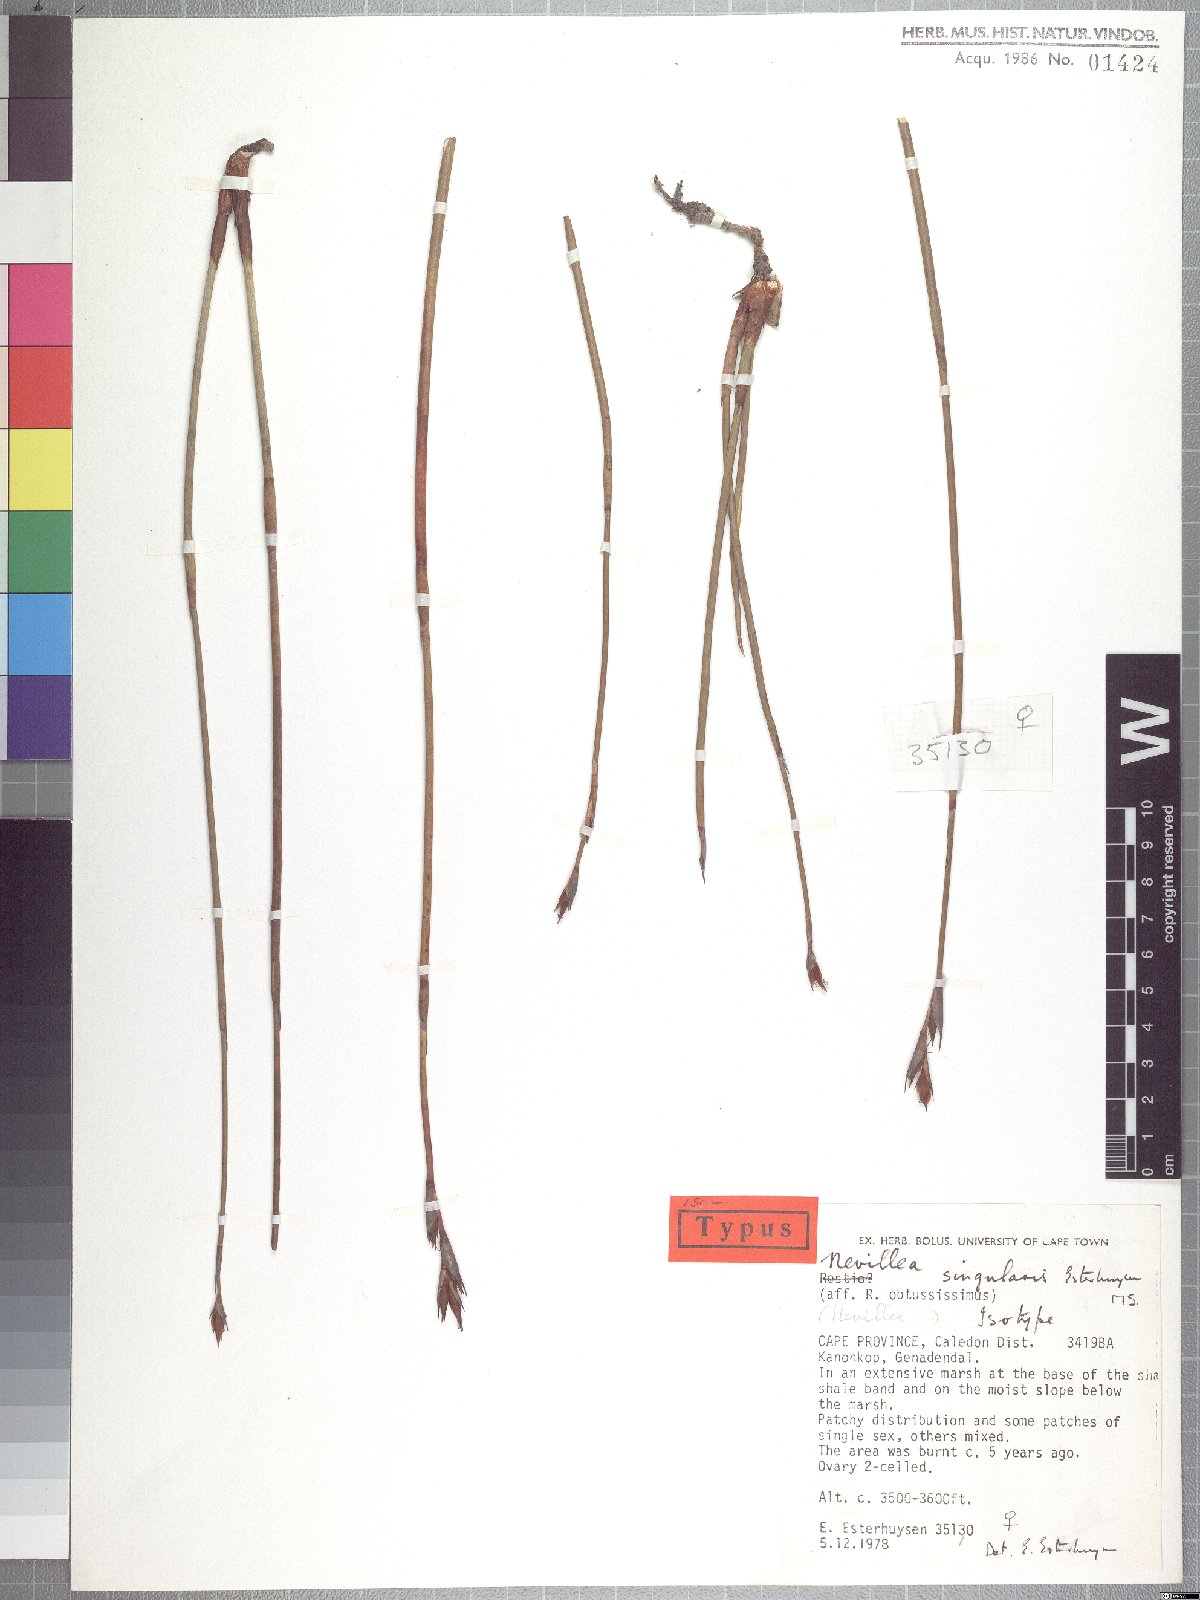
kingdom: Plantae
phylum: Tracheophyta
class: Liliopsida
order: Poales
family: Restionaceae
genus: Nevillea
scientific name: Nevillea singularis
